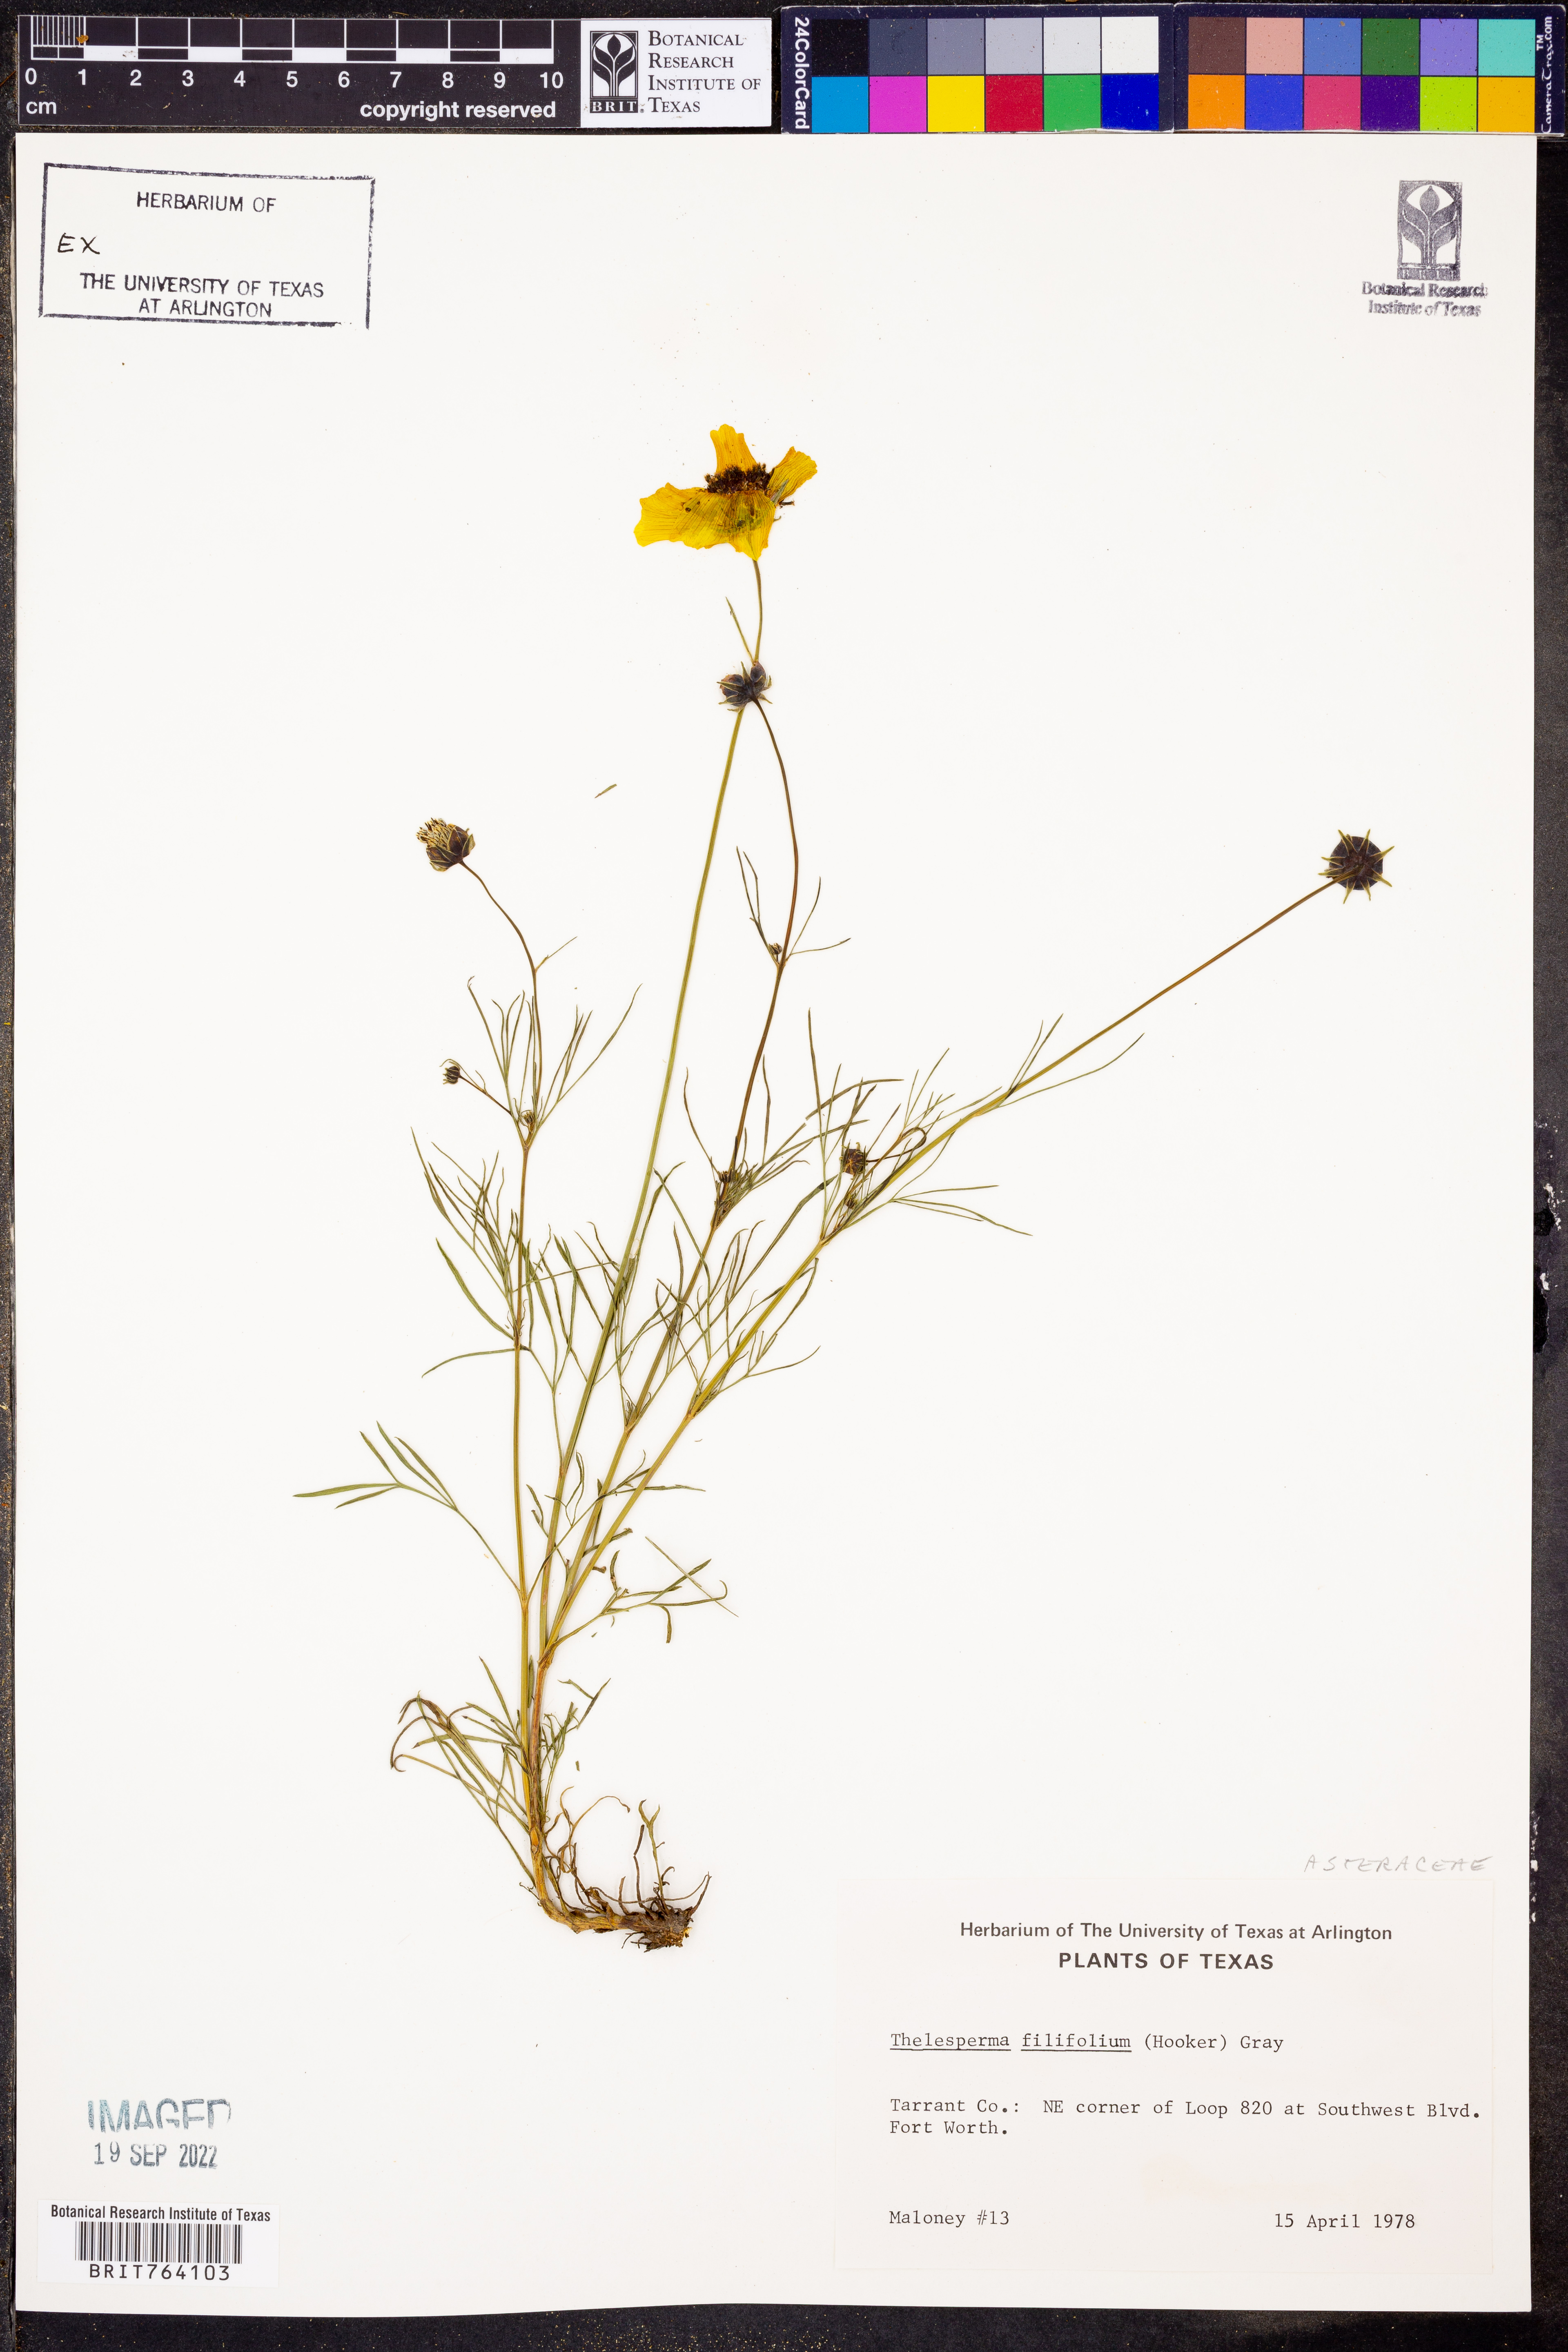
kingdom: Plantae
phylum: Tracheophyta
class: Magnoliopsida
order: Asterales
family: Asteraceae
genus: Thelesperma
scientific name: Thelesperma filifolium
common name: Stiff greenthread
